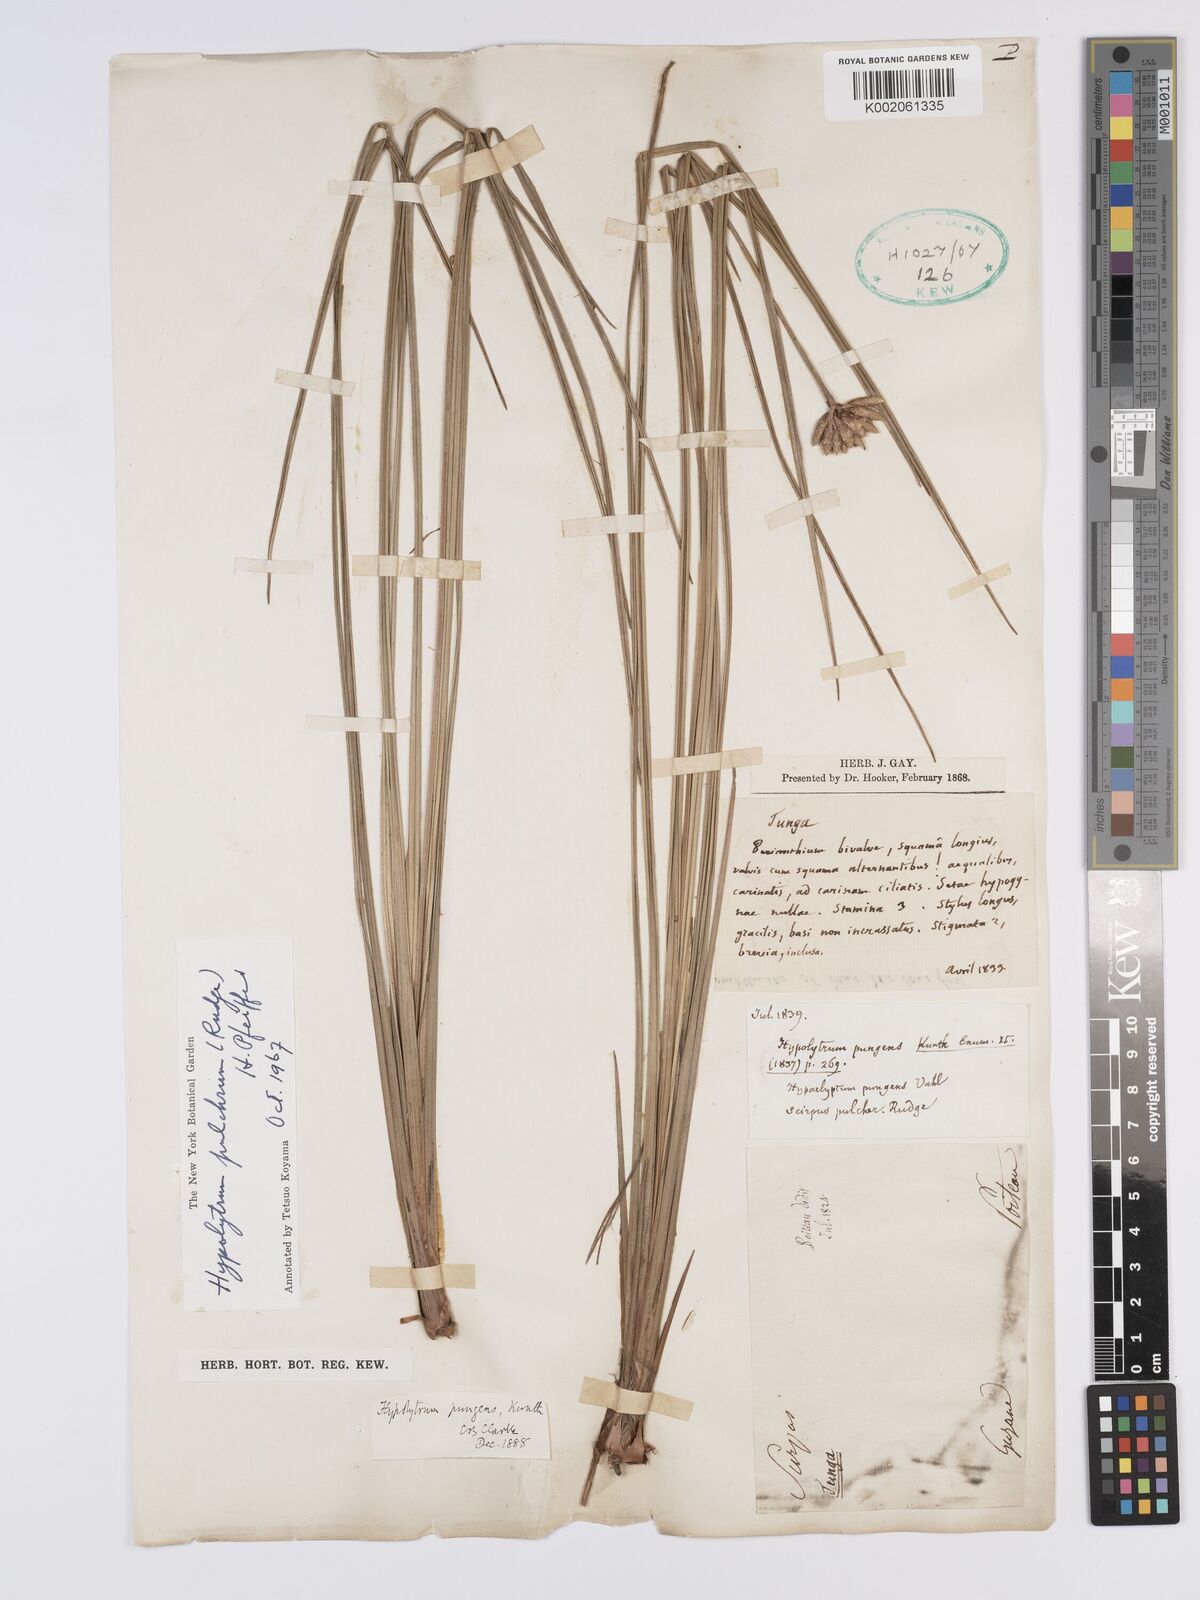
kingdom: Plantae
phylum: Tracheophyta
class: Liliopsida
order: Poales
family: Cyperaceae
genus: Hypolytrum
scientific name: Hypolytrum pulchrum
